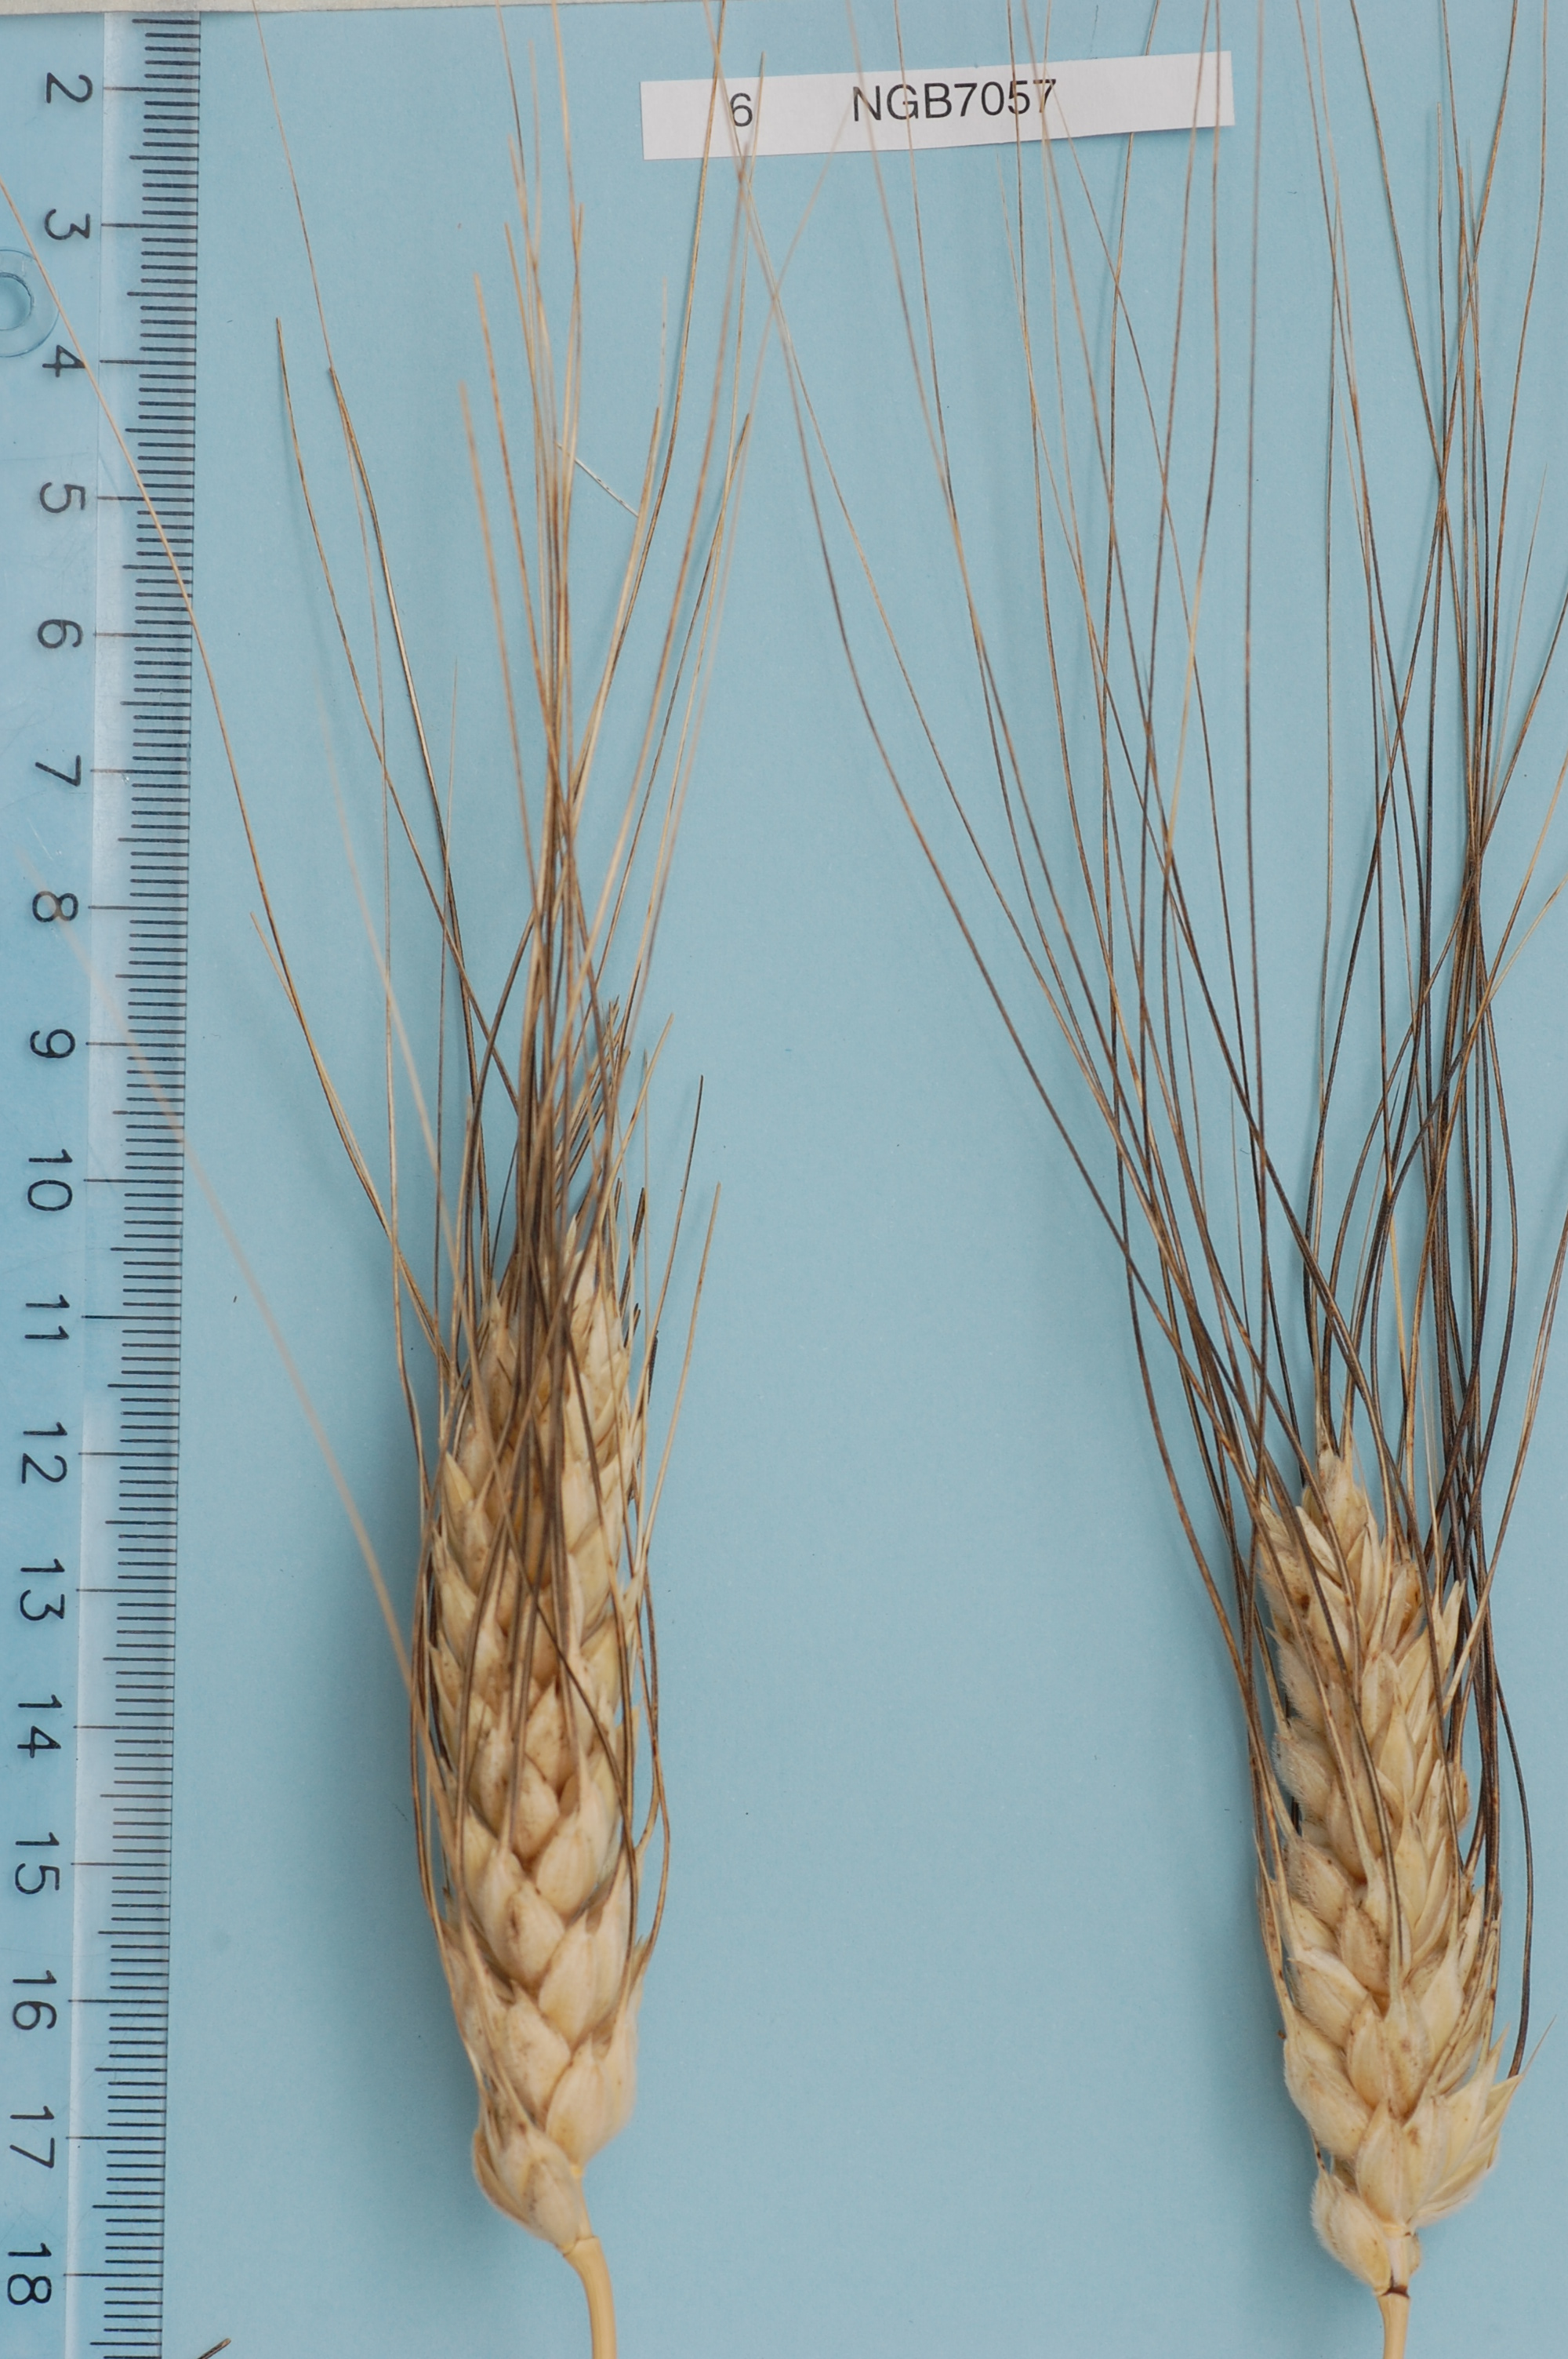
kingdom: Plantae
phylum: Tracheophyta
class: Liliopsida
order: Poales
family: Poaceae
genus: Triticum
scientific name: Triticum turgidum
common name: Rivet wheat
